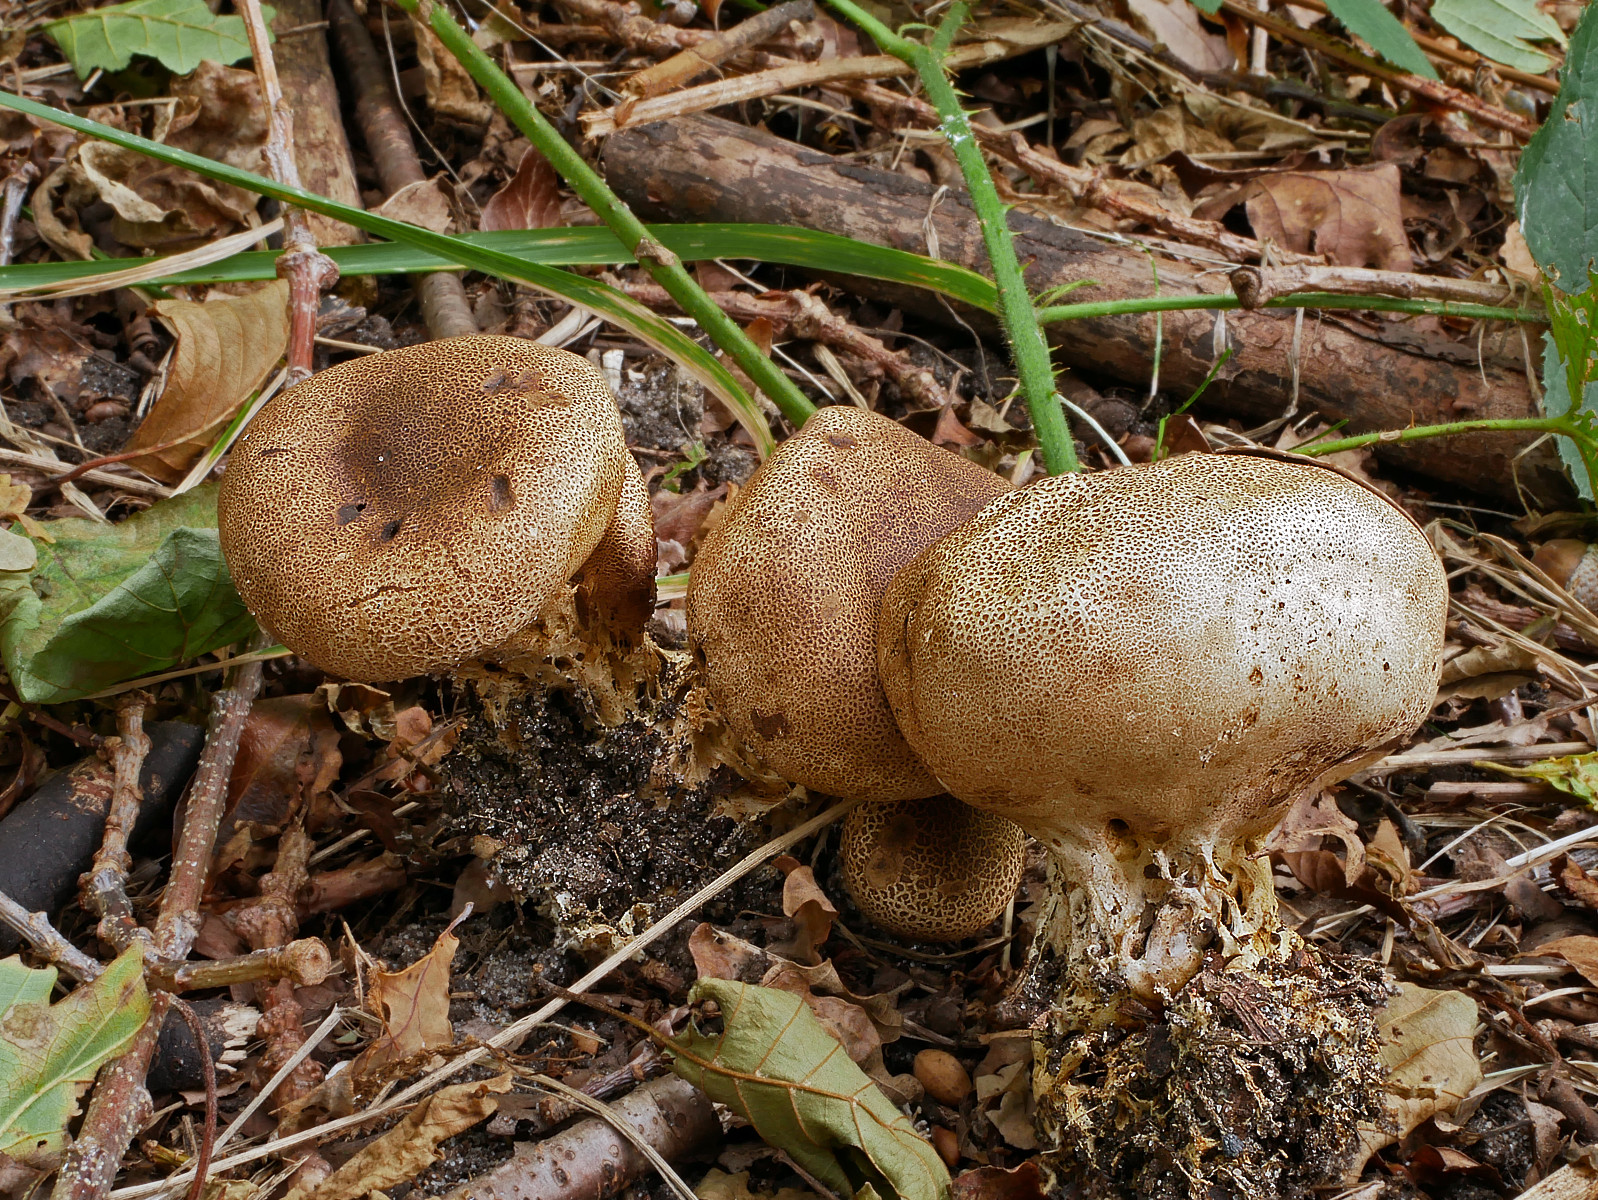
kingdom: Fungi
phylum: Basidiomycota
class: Agaricomycetes
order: Boletales
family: Sclerodermataceae
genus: Scleroderma
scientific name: Scleroderma verrucosum
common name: stilket bruskbold
